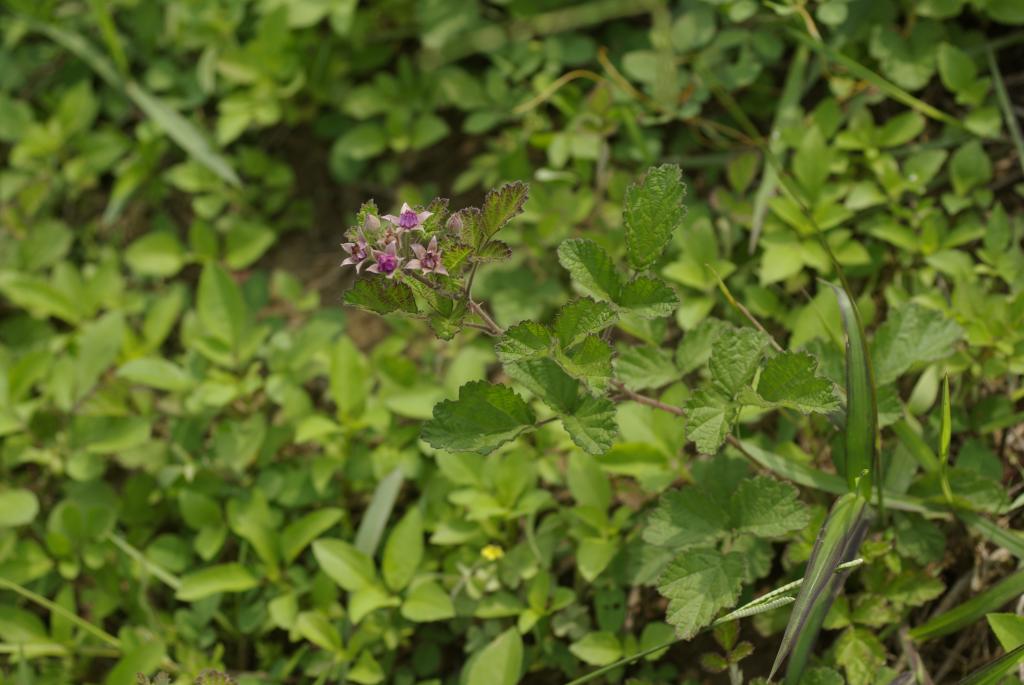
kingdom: Plantae
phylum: Tracheophyta
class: Magnoliopsida
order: Rosales
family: Rosaceae
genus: Rubus
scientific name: Rubus parvifolius
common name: Threeleaf blackberry
